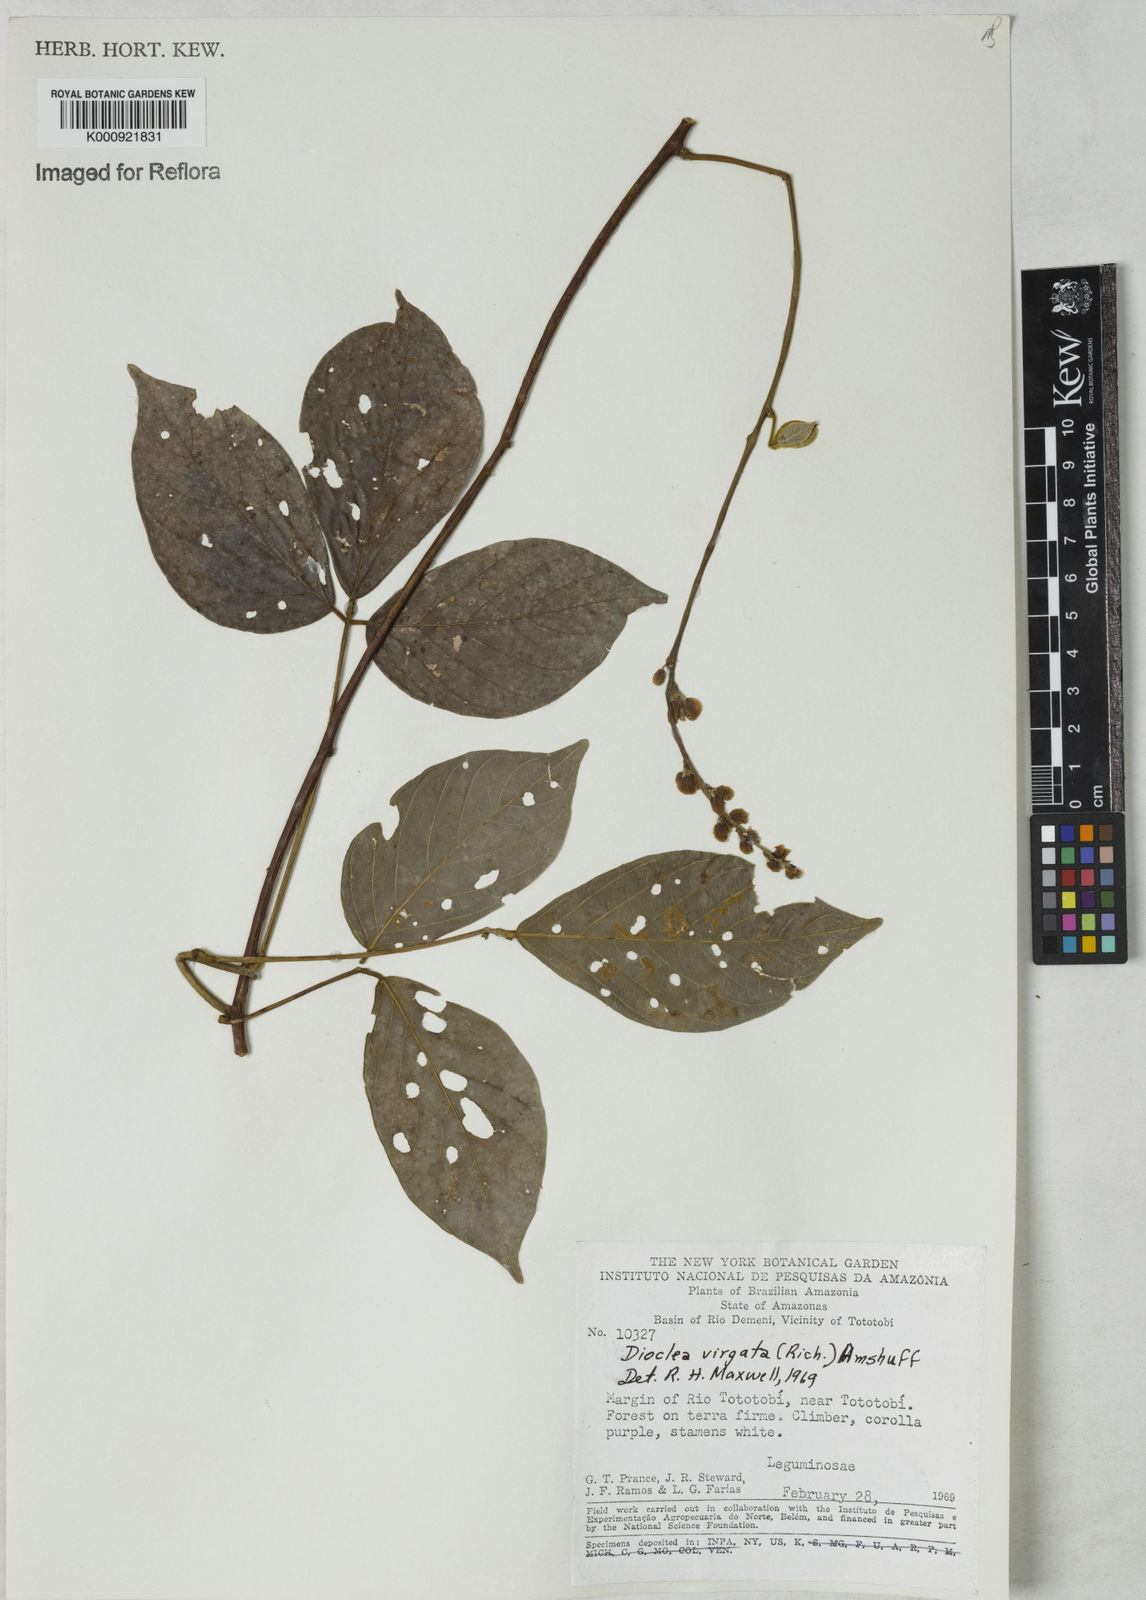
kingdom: Plantae
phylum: Tracheophyta
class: Magnoliopsida
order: Fabales
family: Fabaceae
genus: Dioclea
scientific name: Dioclea virgata
